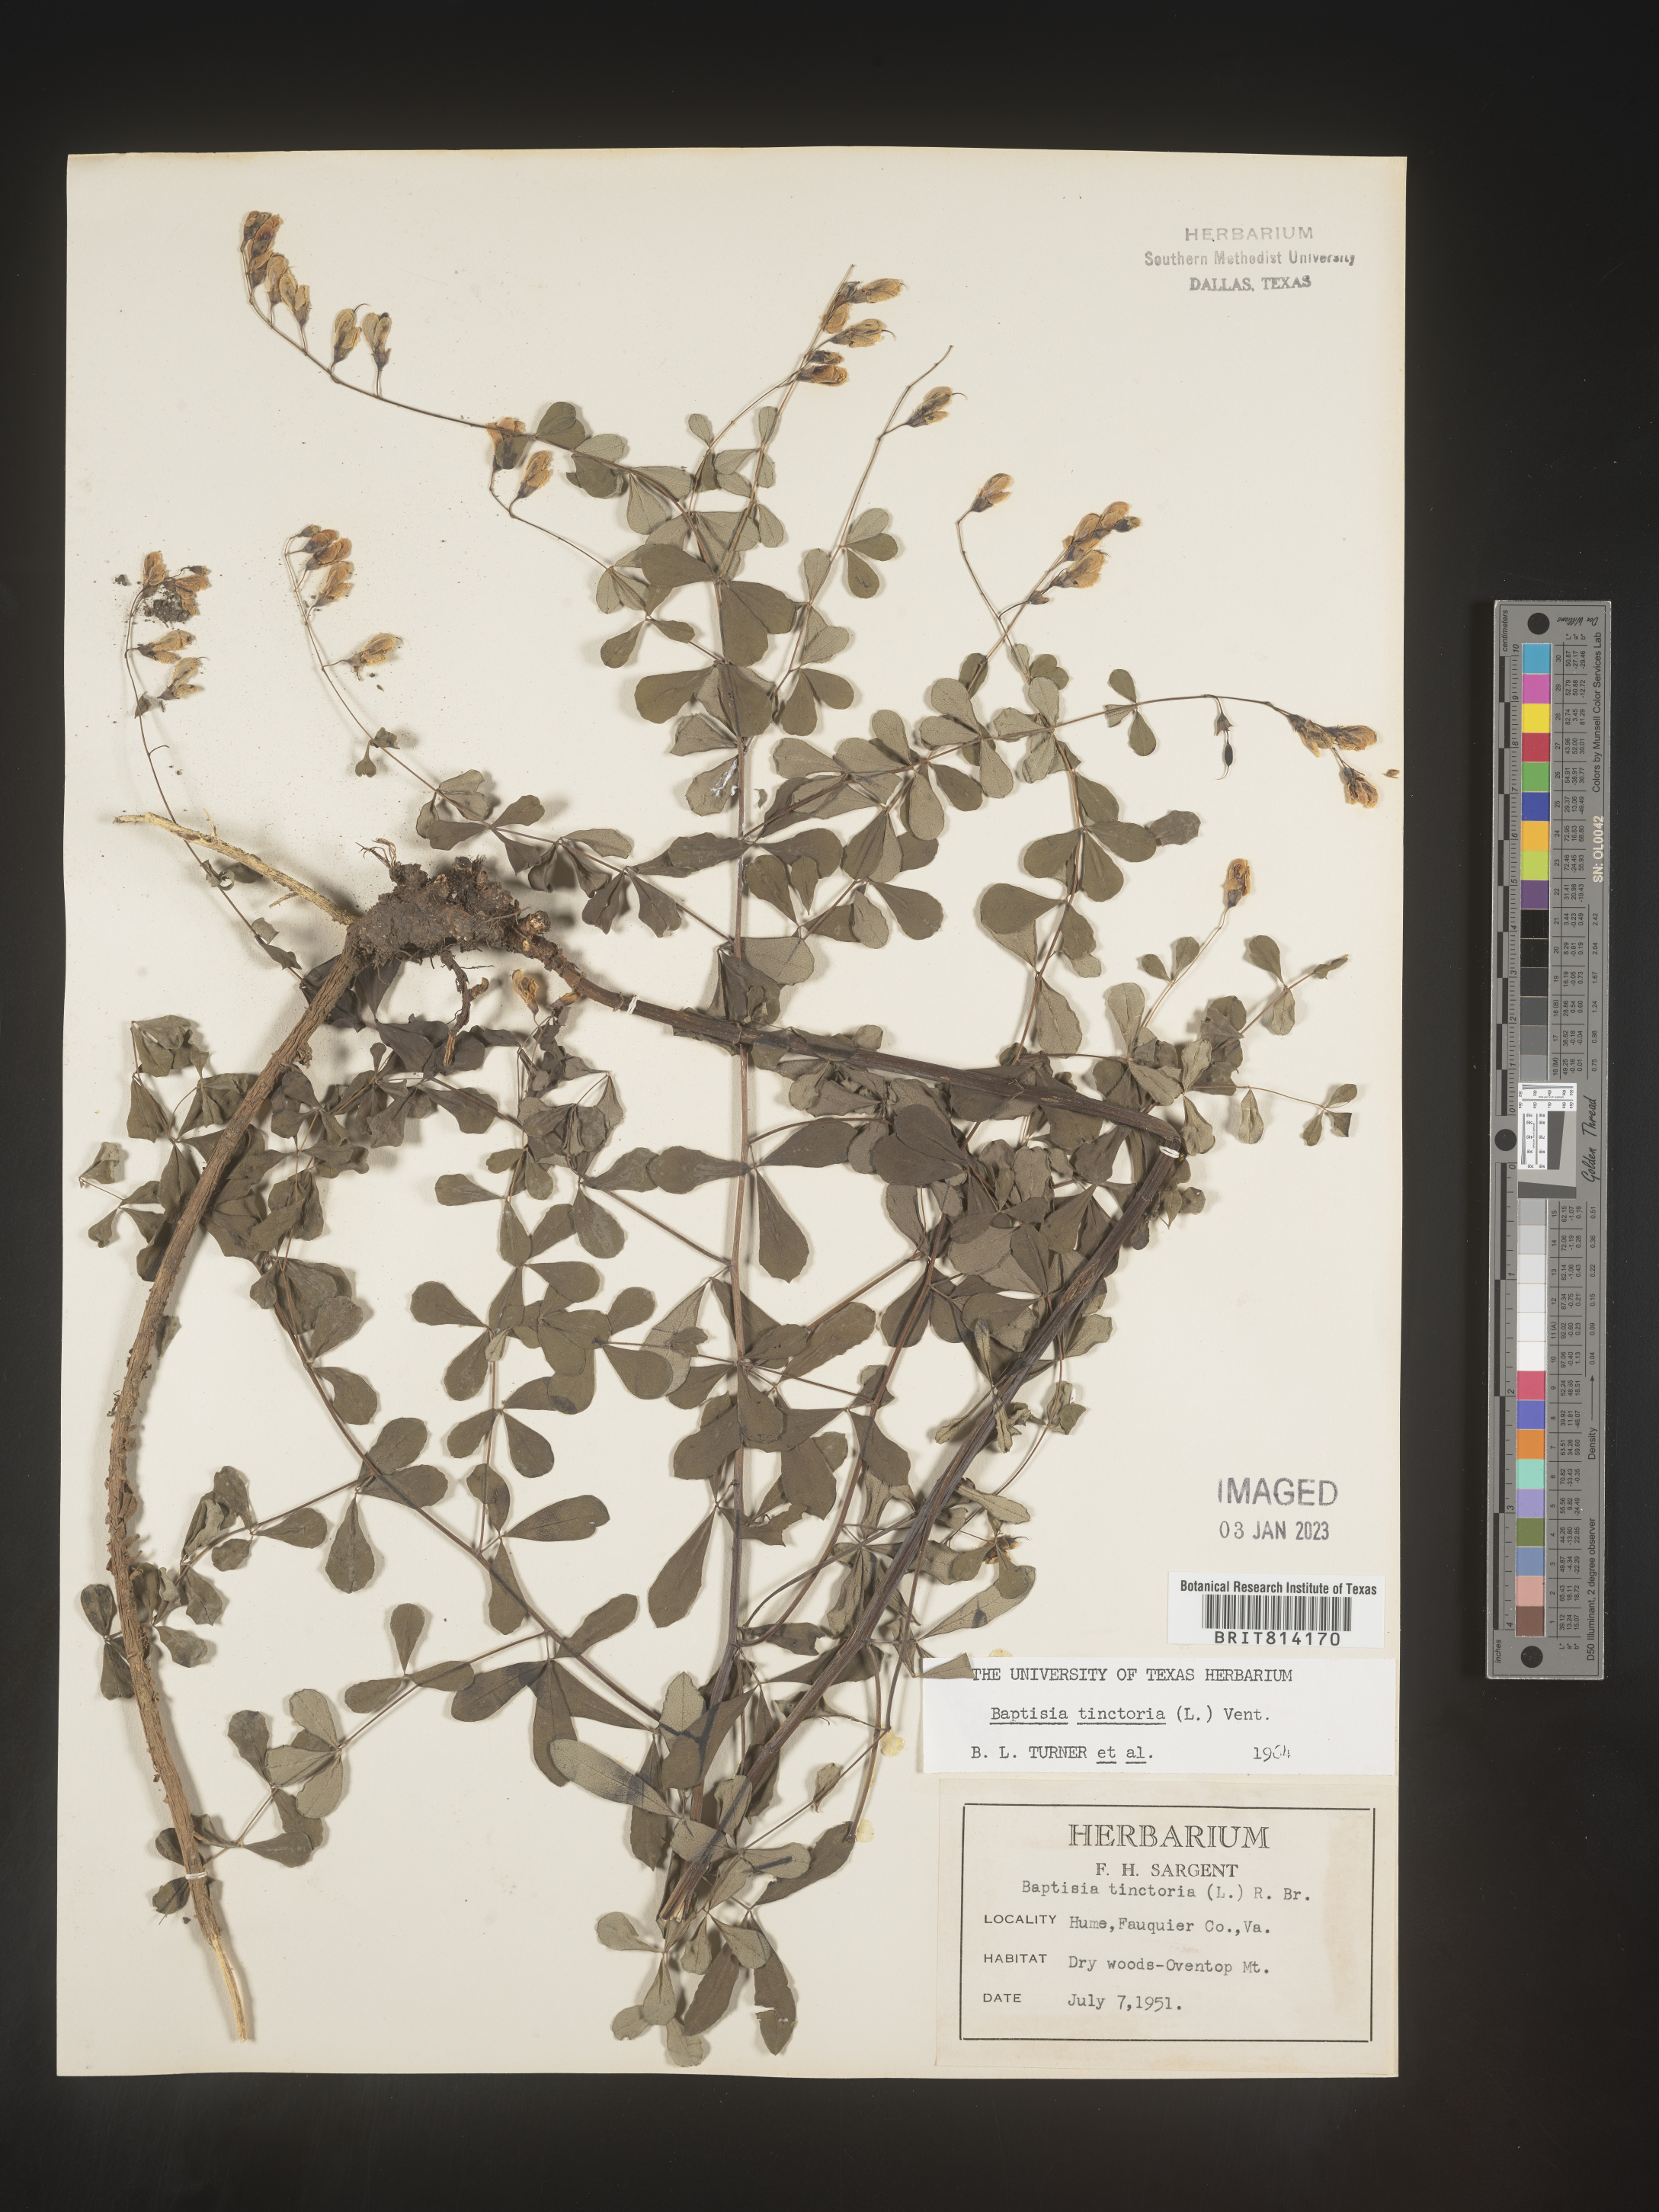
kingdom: Plantae
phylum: Tracheophyta
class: Magnoliopsida
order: Fabales
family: Fabaceae
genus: Baptisia
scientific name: Baptisia tinctoria
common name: Wild indigo
